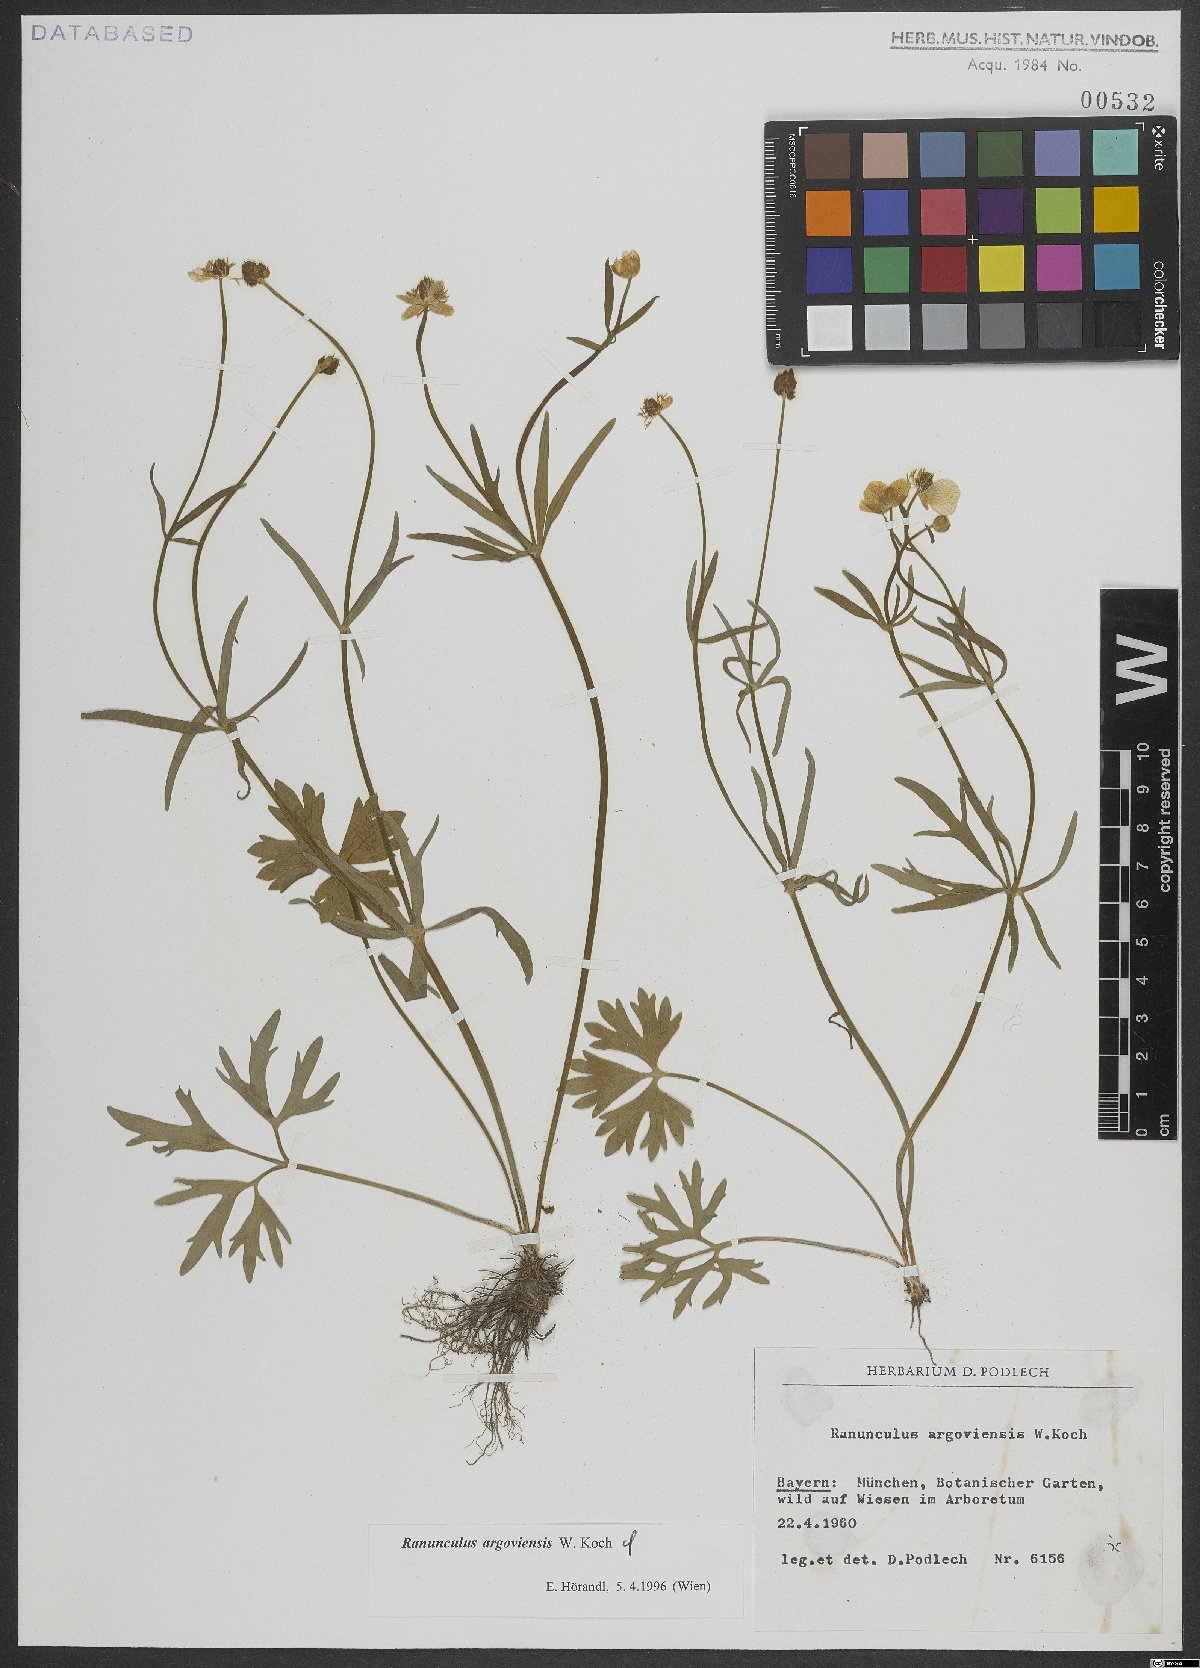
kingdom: Plantae
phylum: Tracheophyta
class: Magnoliopsida
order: Ranunculales
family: Ranunculaceae
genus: Ranunculus
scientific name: Ranunculus argoviensis
